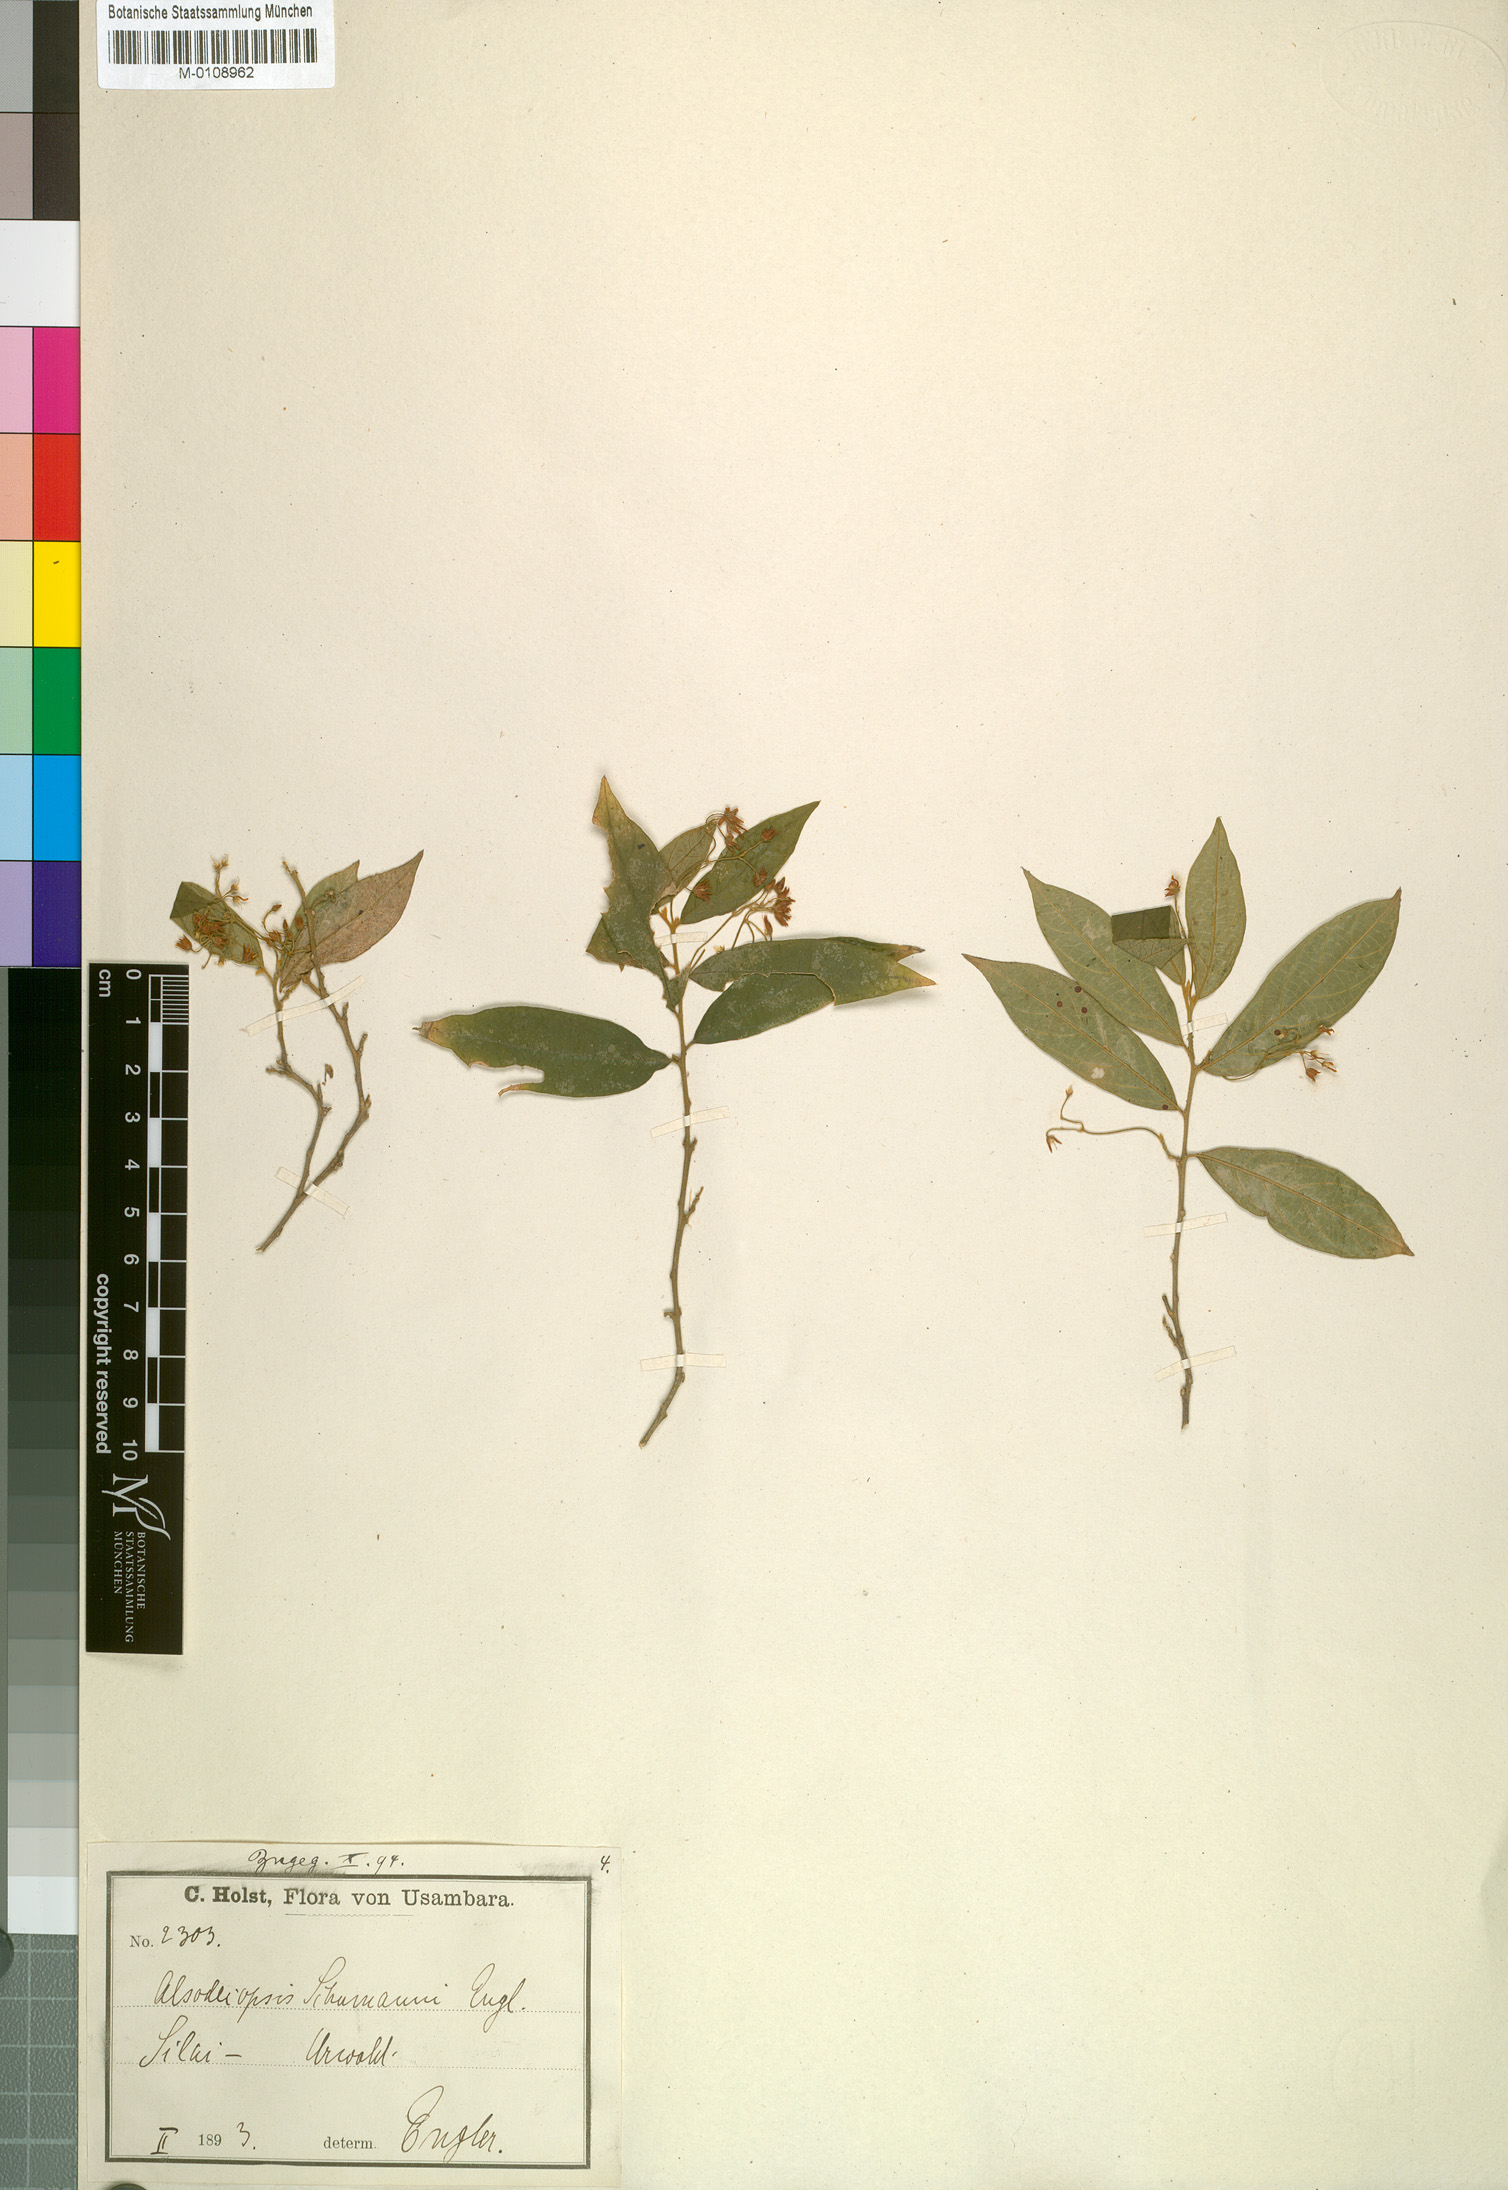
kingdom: Plantae
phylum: Tracheophyta
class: Magnoliopsida
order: Icacinales
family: Icacinaceae
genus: Alsodeiopsis
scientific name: Alsodeiopsis schumannii
